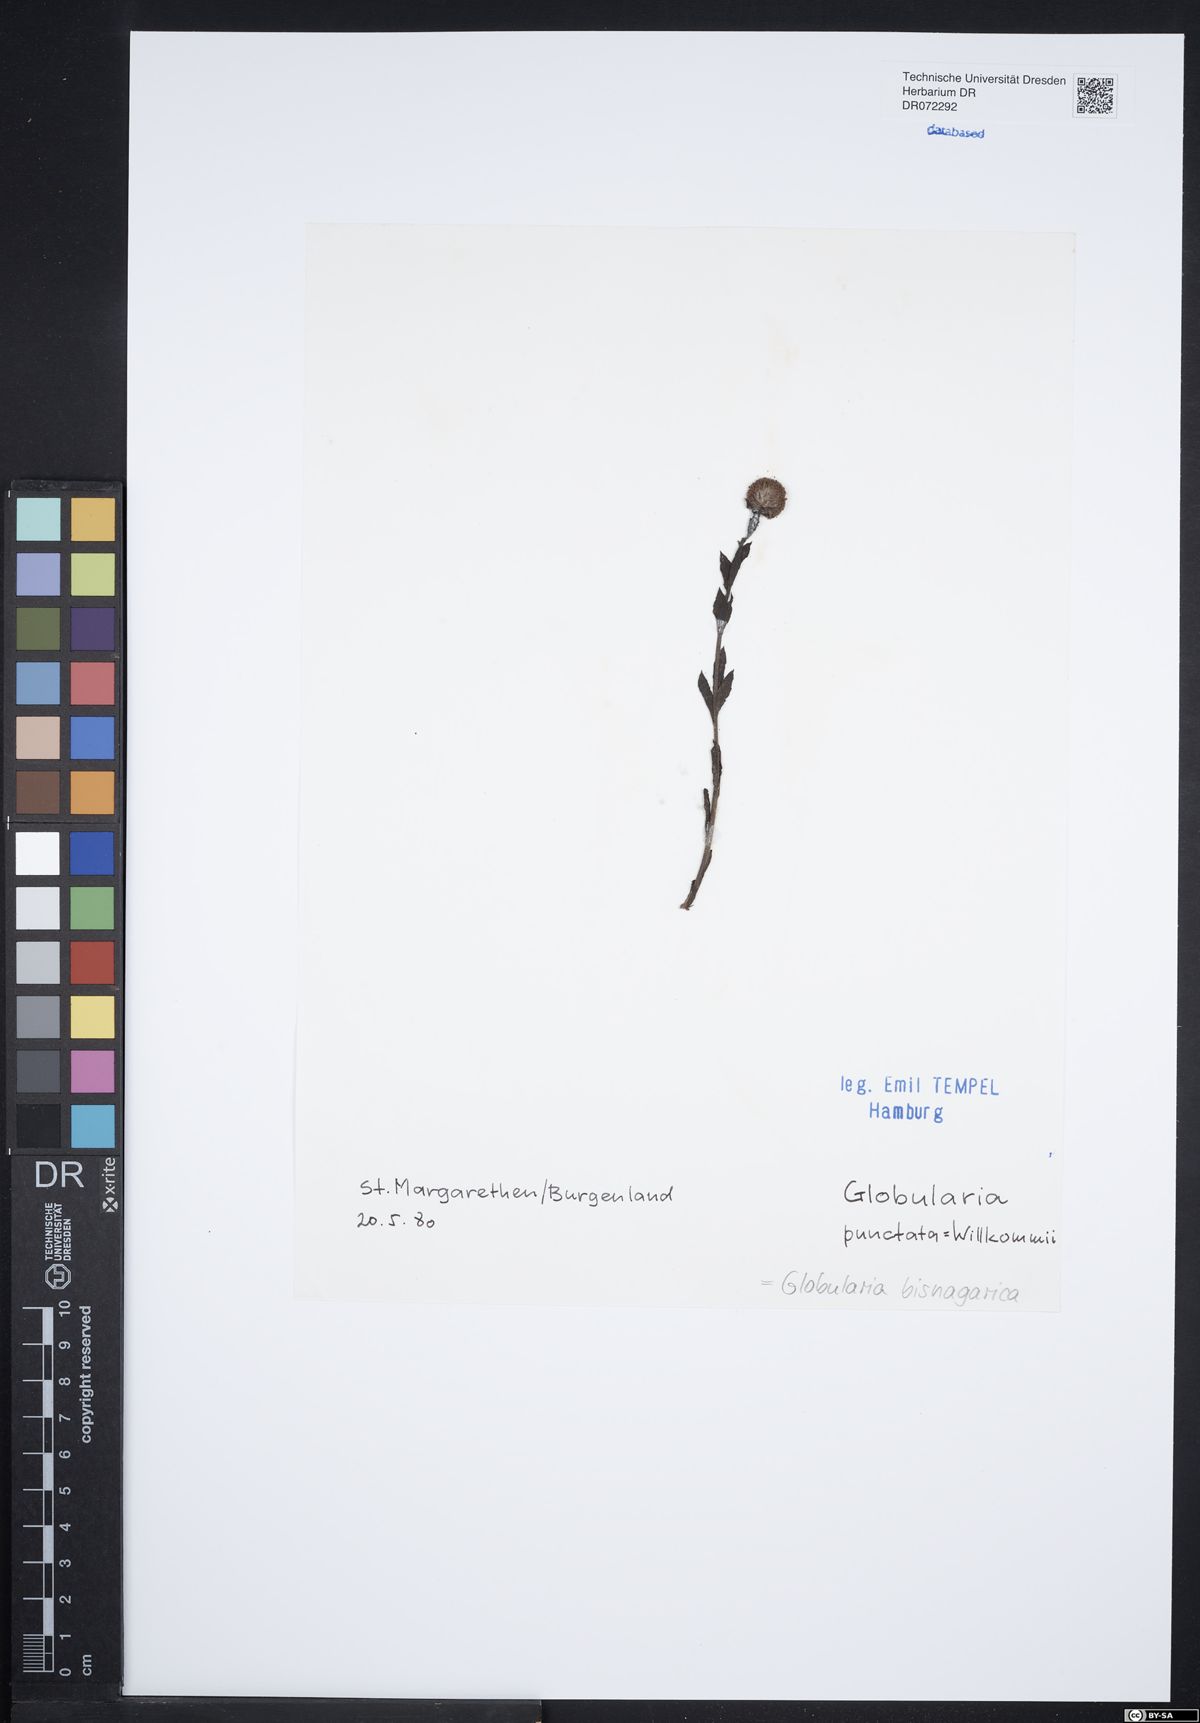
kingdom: Plantae
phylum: Tracheophyta
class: Magnoliopsida
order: Lamiales
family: Plantaginaceae
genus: Globularia
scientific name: Globularia bisnagarica
